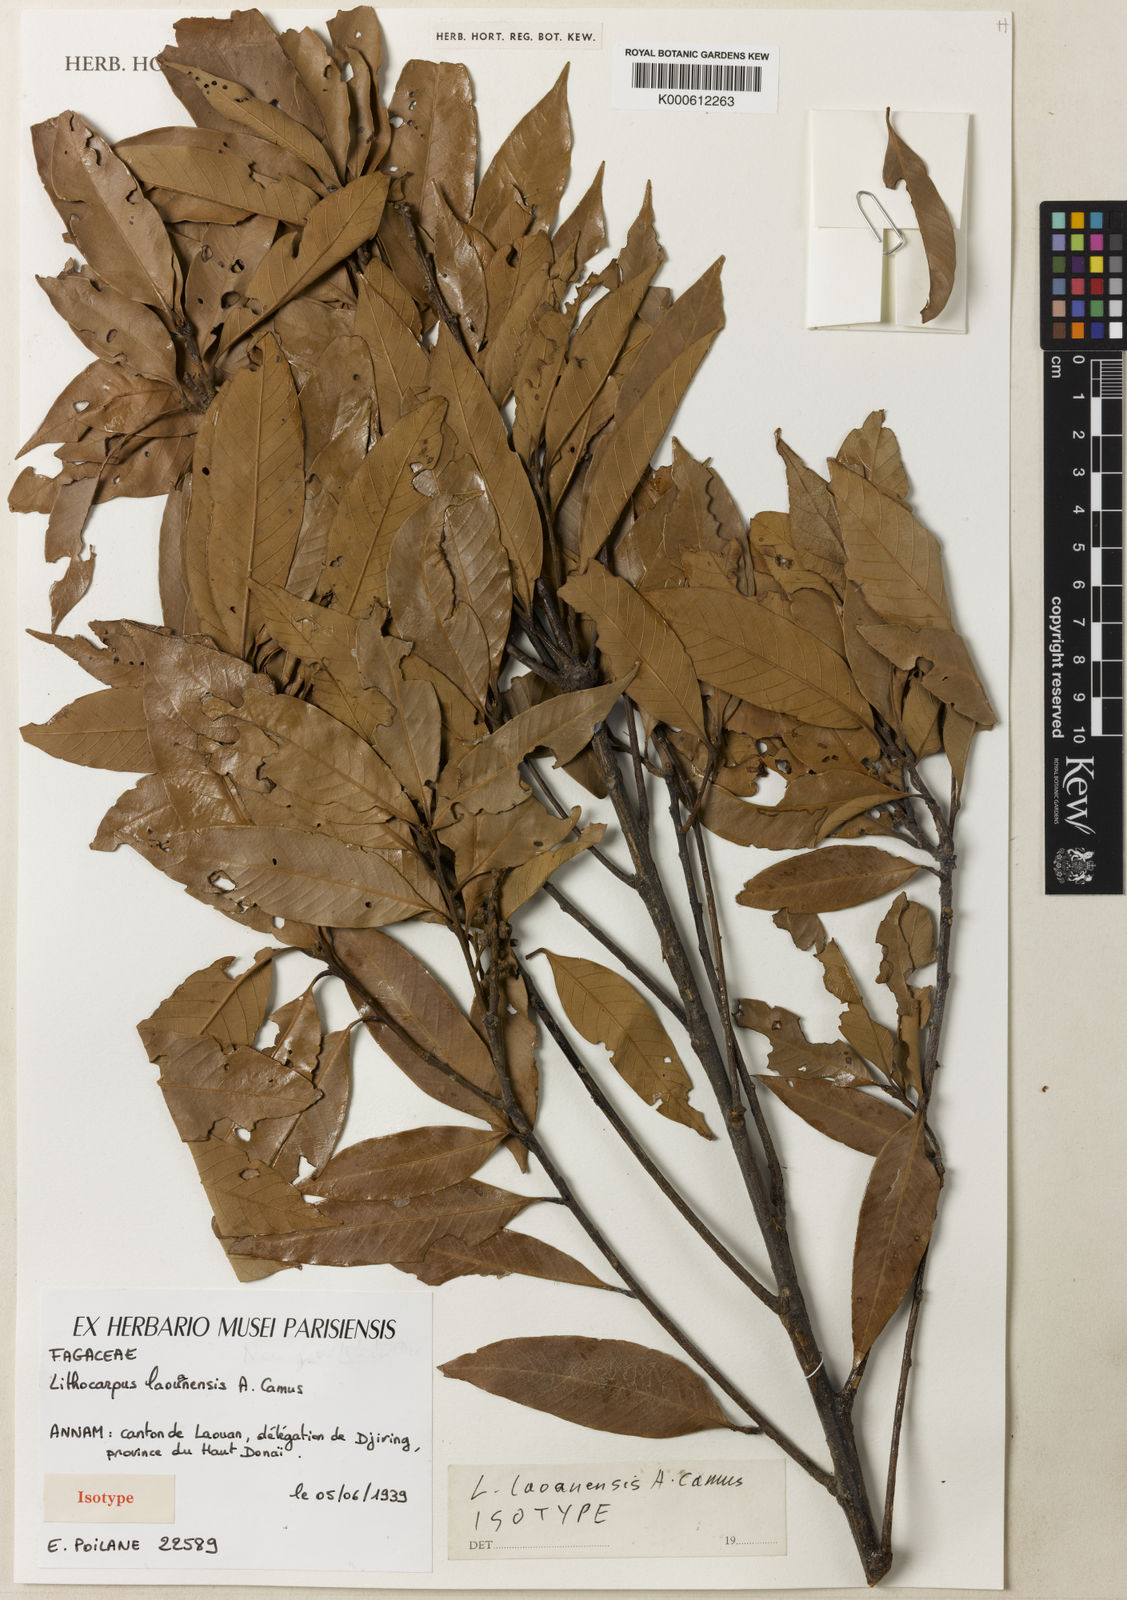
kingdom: Plantae
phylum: Tracheophyta
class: Magnoliopsida
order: Fagales
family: Fagaceae
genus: Lithocarpus
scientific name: Lithocarpus laouanensis
